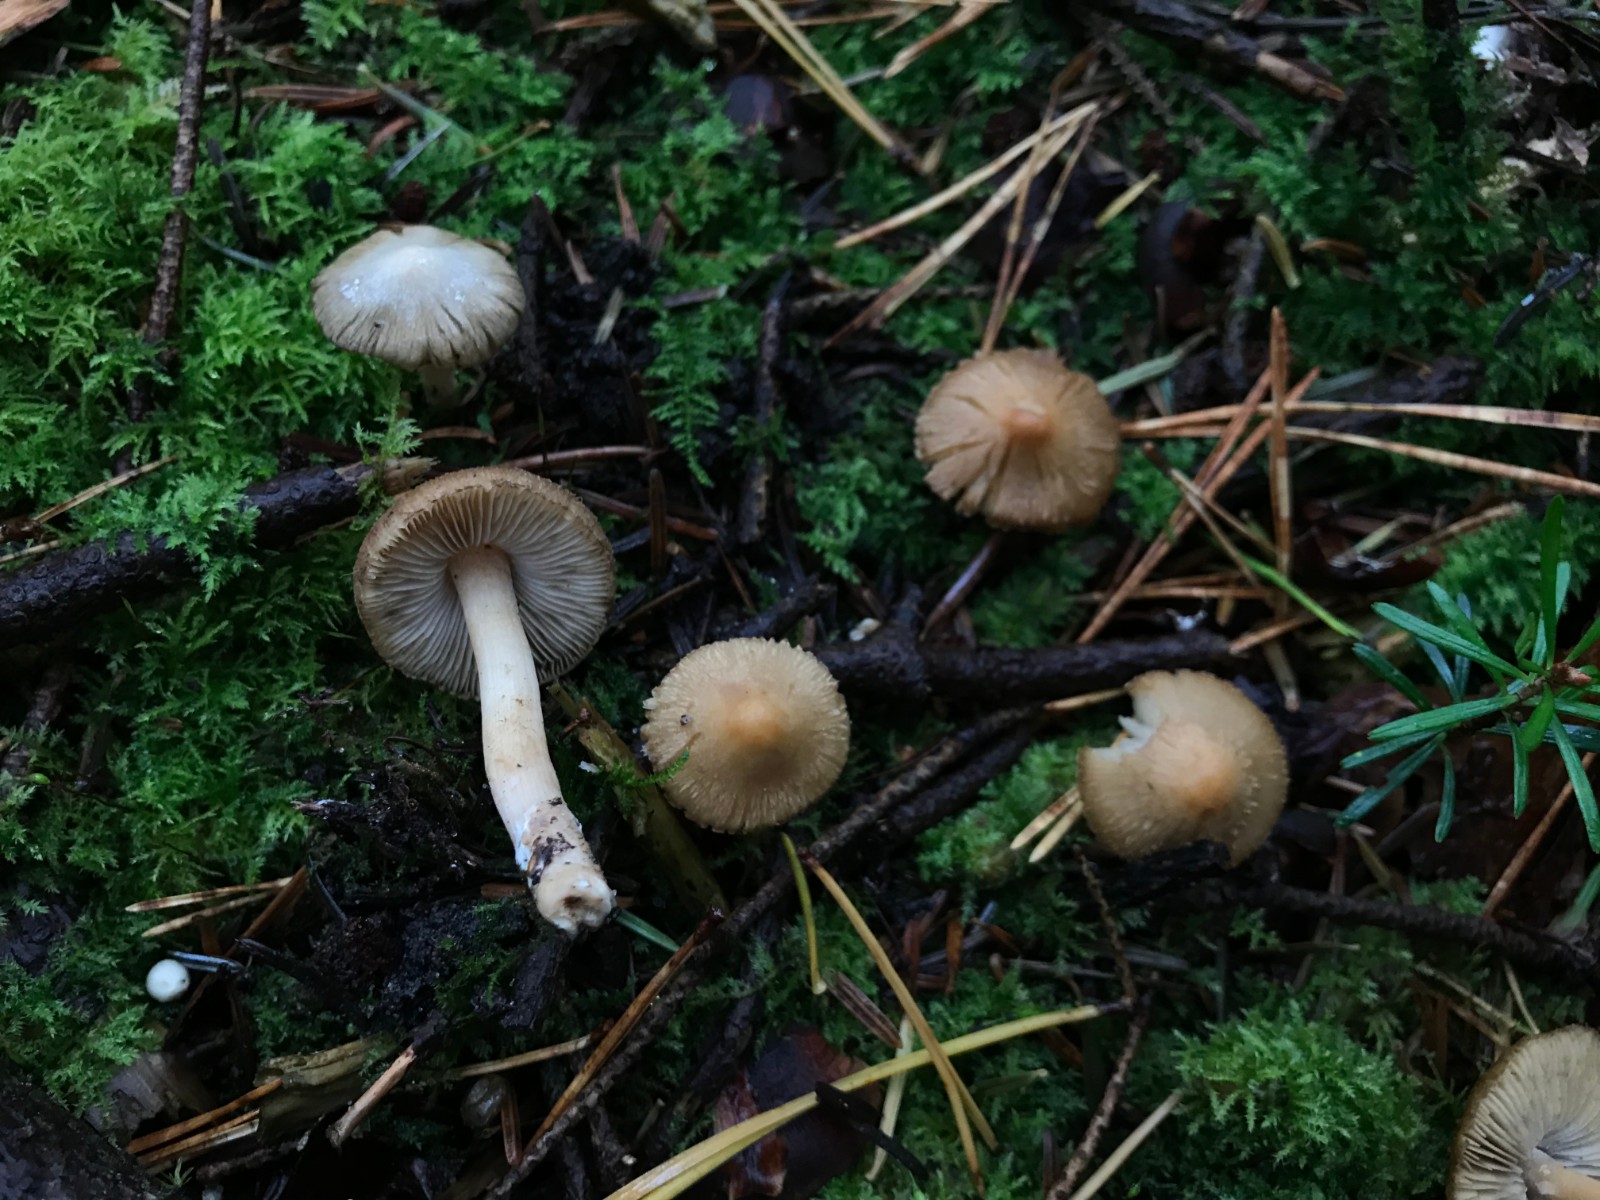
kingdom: Fungi
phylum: Basidiomycota
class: Agaricomycetes
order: Agaricales
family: Inocybaceae
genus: Inocybe
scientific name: Inocybe langei
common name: Langes trævlhat
